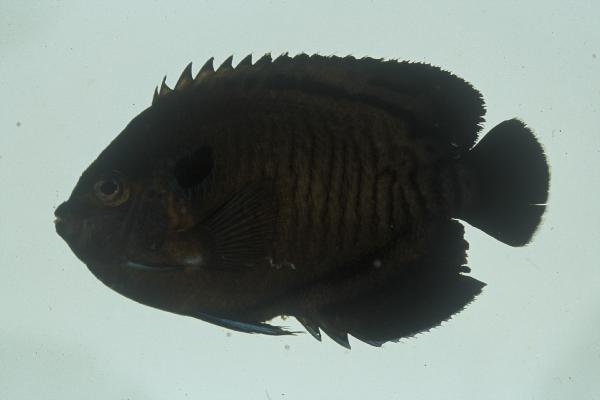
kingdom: Animalia
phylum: Chordata
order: Perciformes
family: Pomacanthidae
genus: Centropyge
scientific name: Centropyge multispinis
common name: Many-spined angelfish
